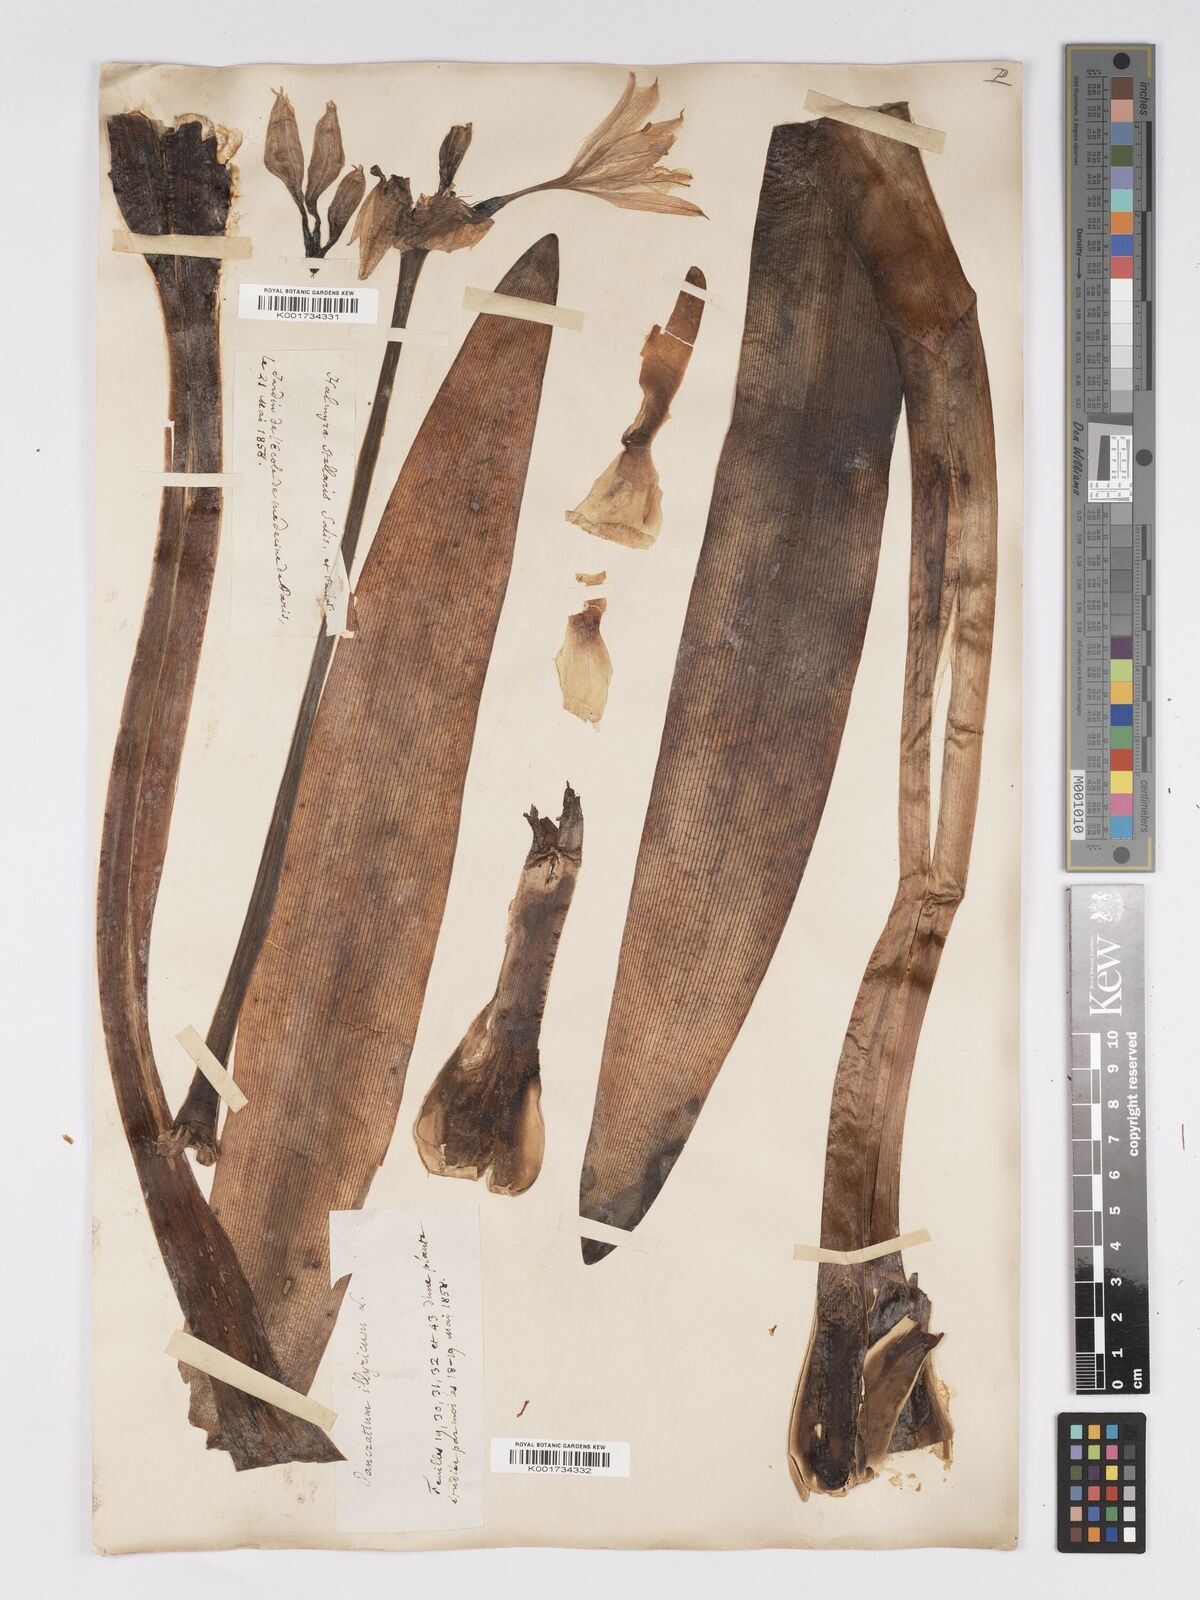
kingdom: Plantae
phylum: Tracheophyta
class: Liliopsida
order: Asparagales
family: Amaryllidaceae
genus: Pancratium
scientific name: Pancratium illyricum
